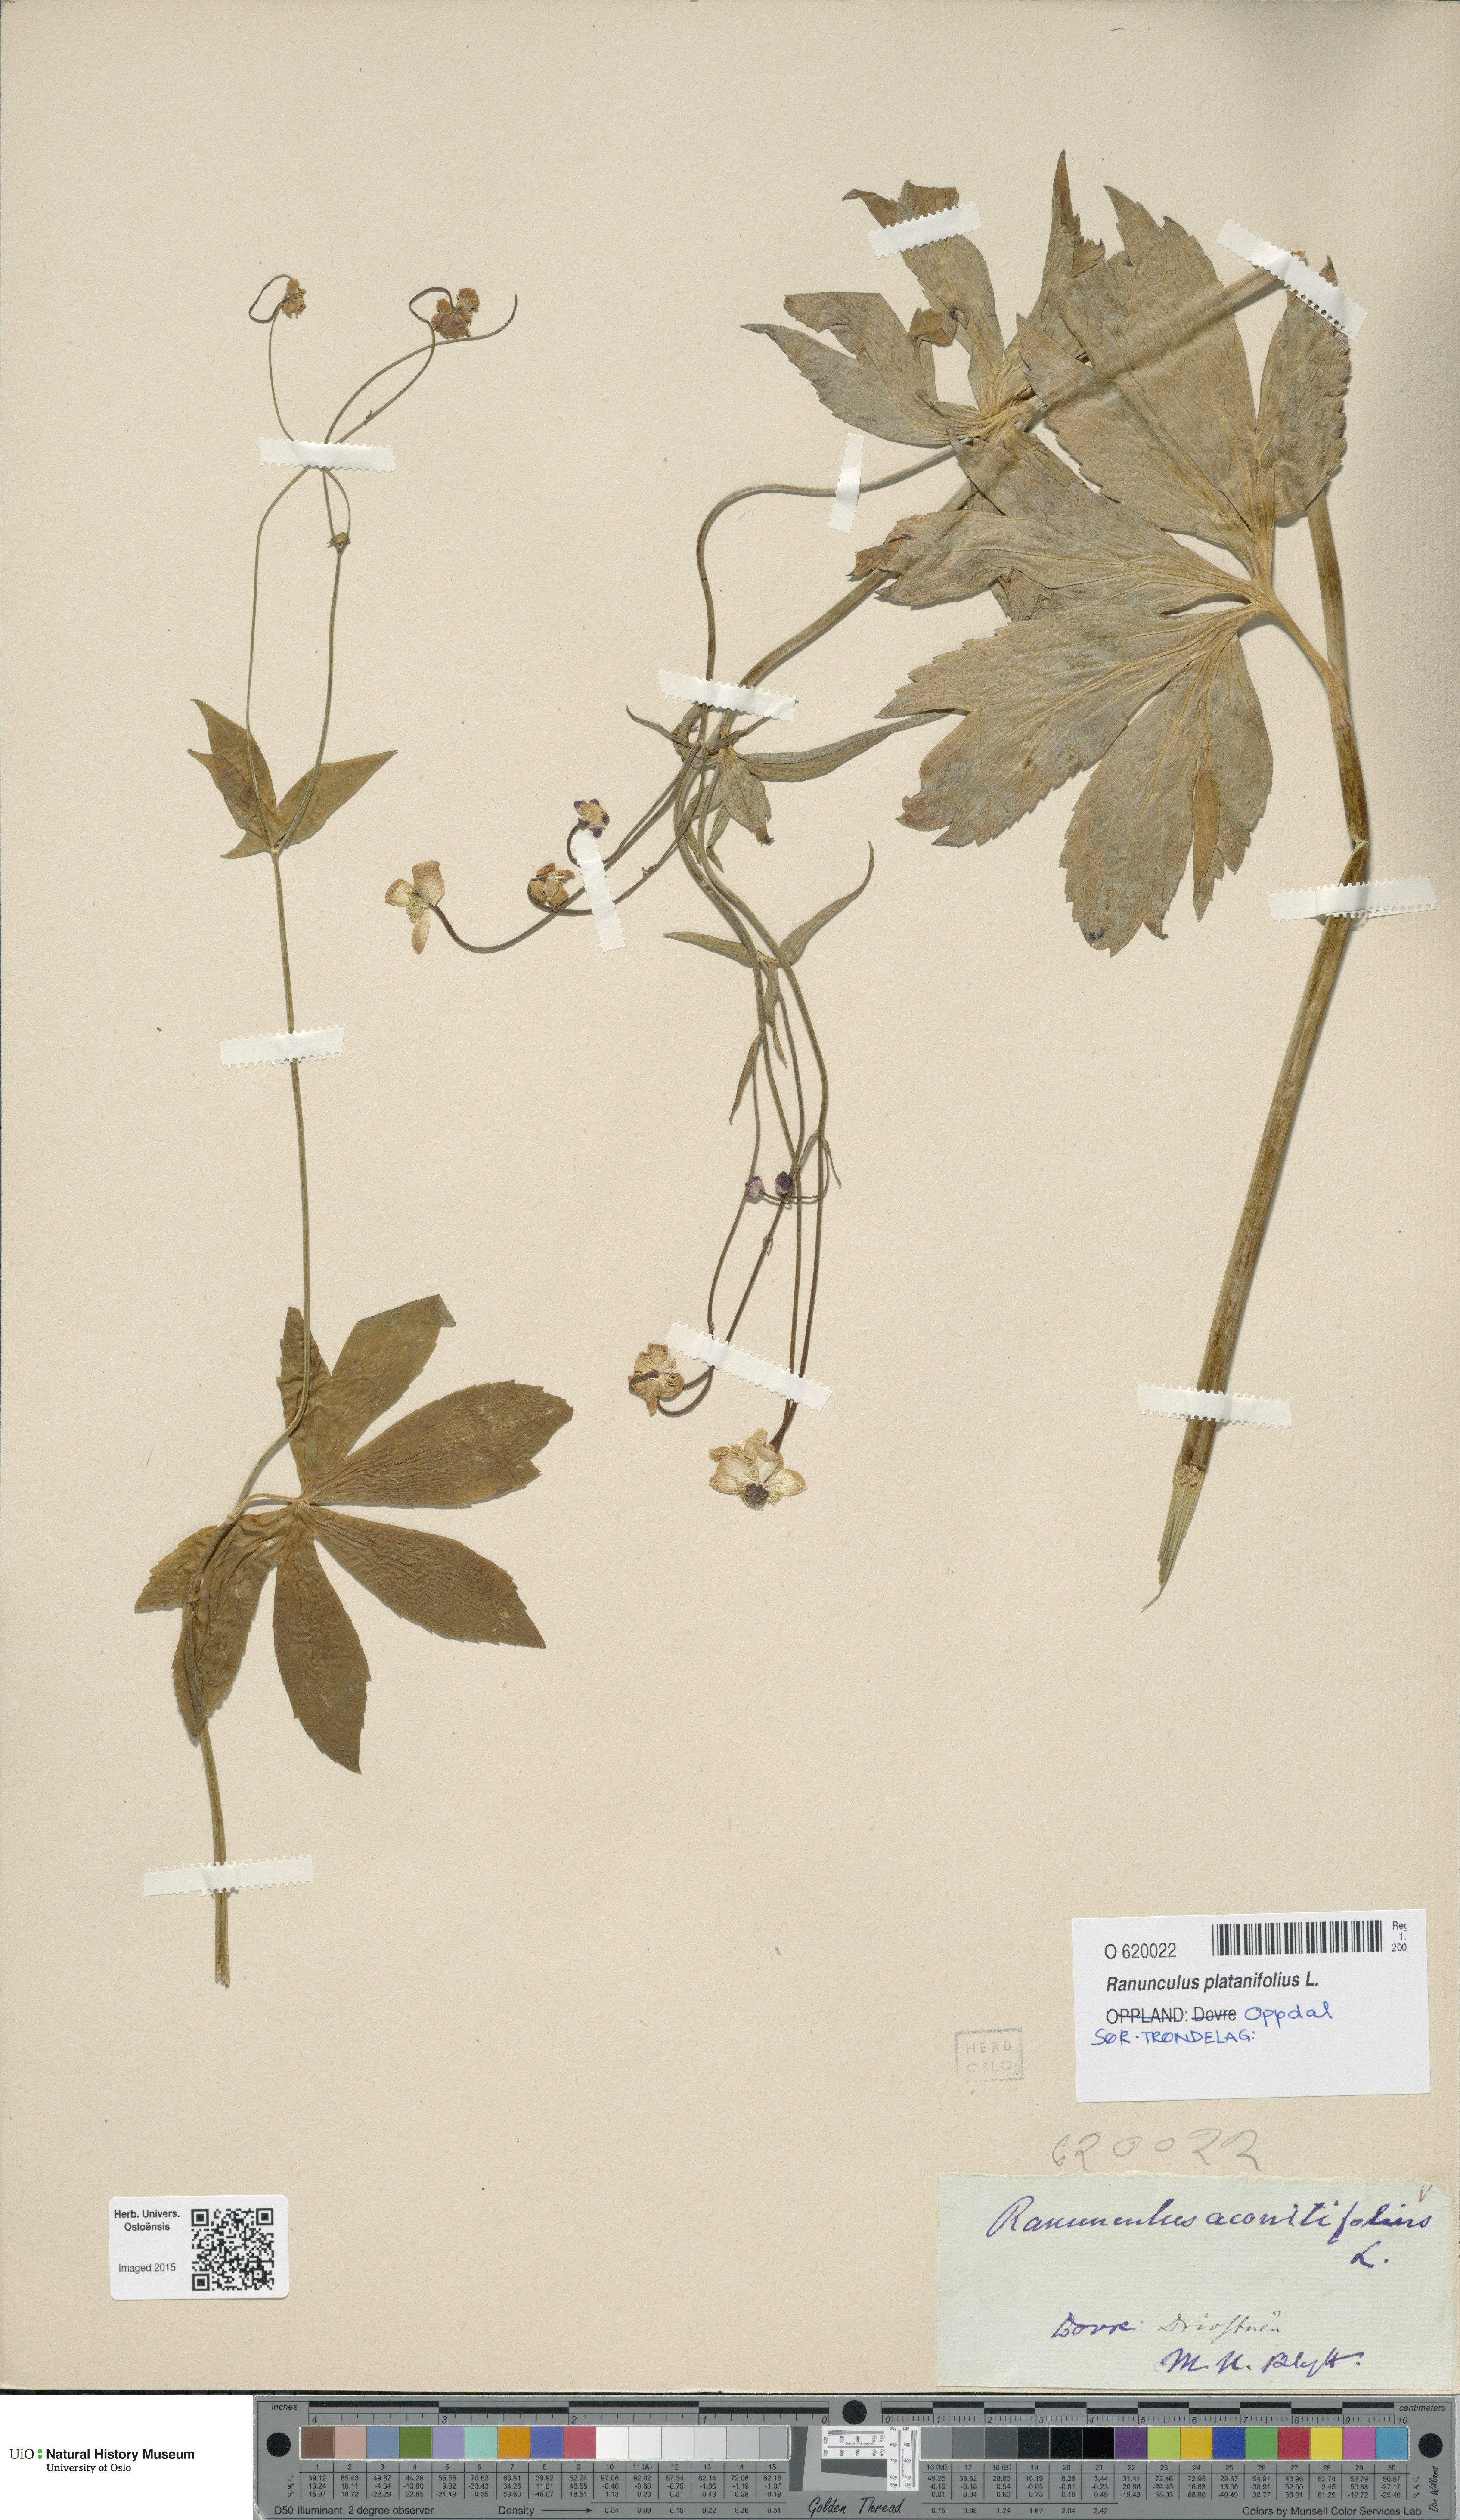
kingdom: Plantae
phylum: Tracheophyta
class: Magnoliopsida
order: Ranunculales
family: Ranunculaceae
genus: Ranunculus
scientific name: Ranunculus platanifolius
